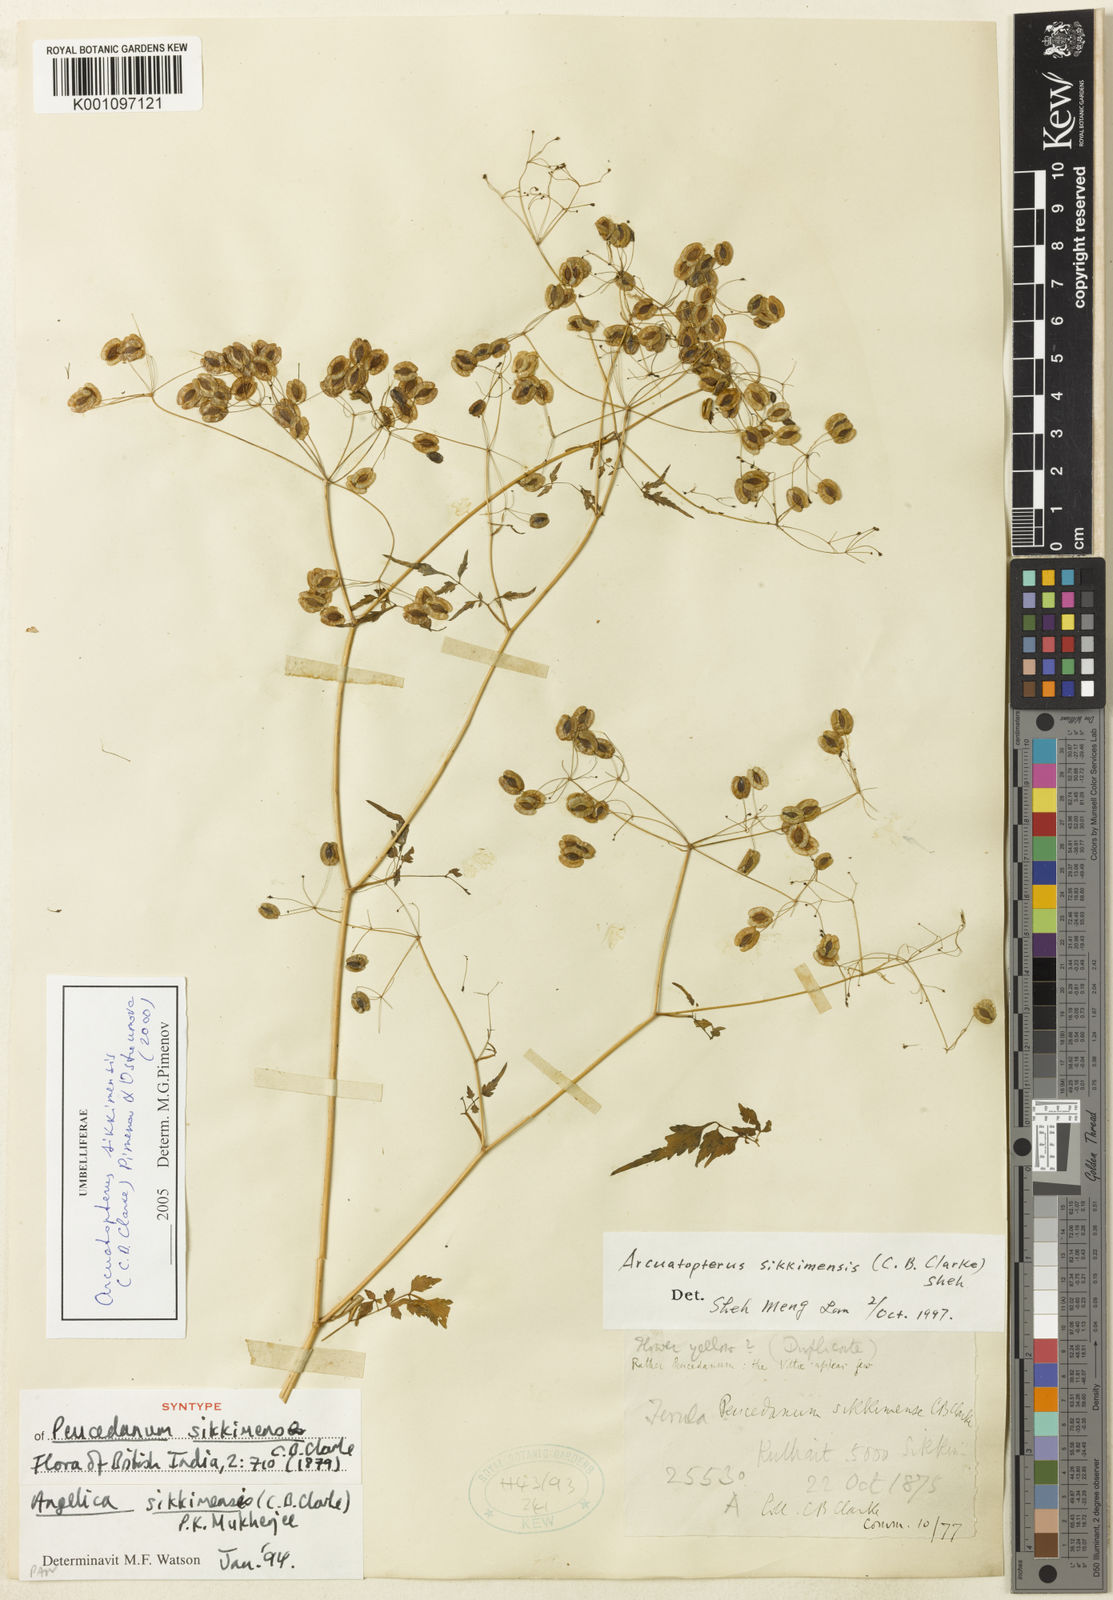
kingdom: Plantae
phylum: Tracheophyta
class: Magnoliopsida
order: Apiales
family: Apiaceae
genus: Arcuatopterus
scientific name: Arcuatopterus sikkimensis
